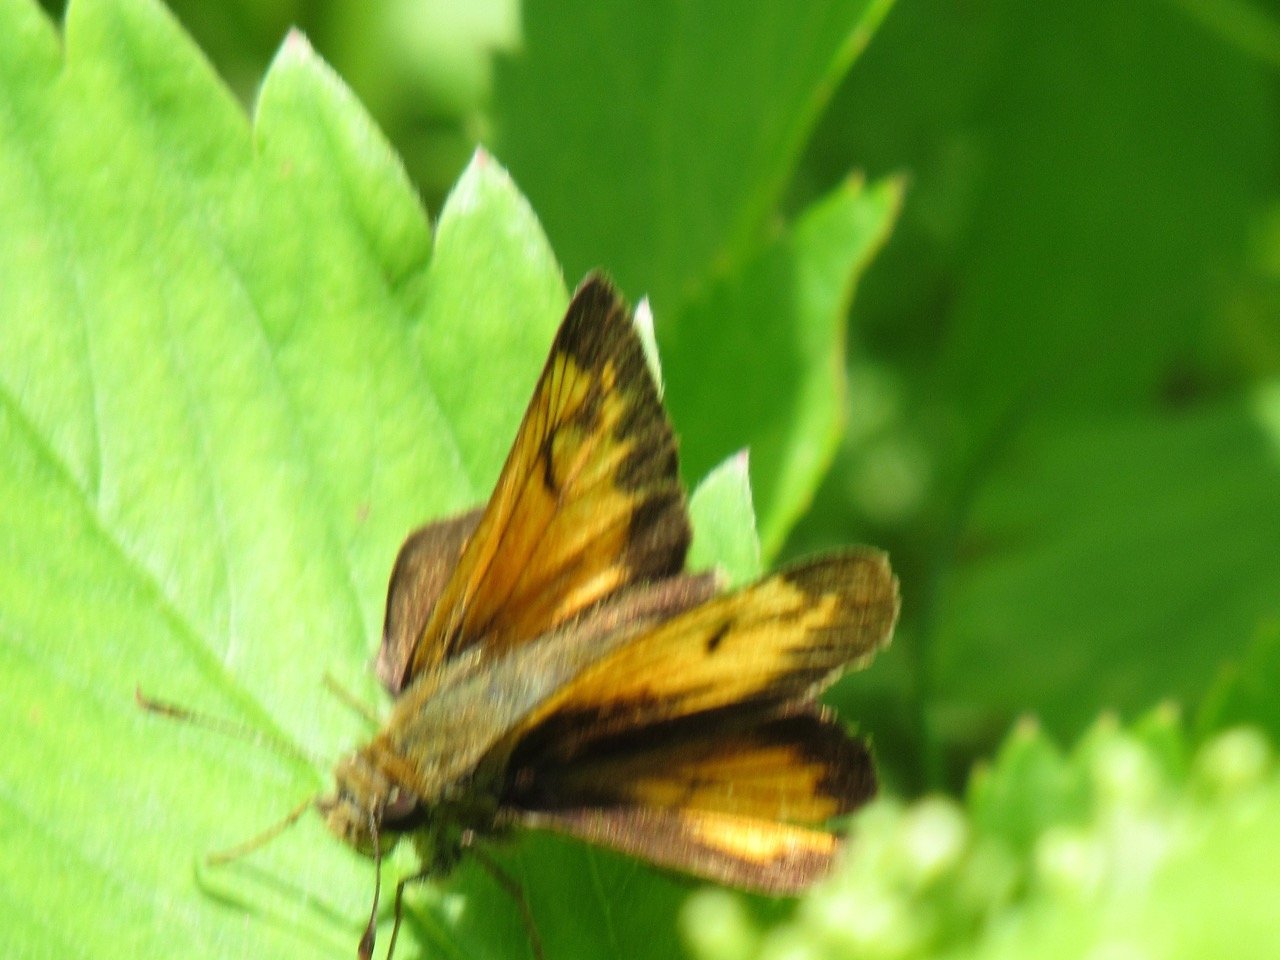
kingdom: Animalia
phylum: Arthropoda
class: Insecta
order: Lepidoptera
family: Hesperiidae
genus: Lon
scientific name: Lon hobomok
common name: Hobomok Skipper
